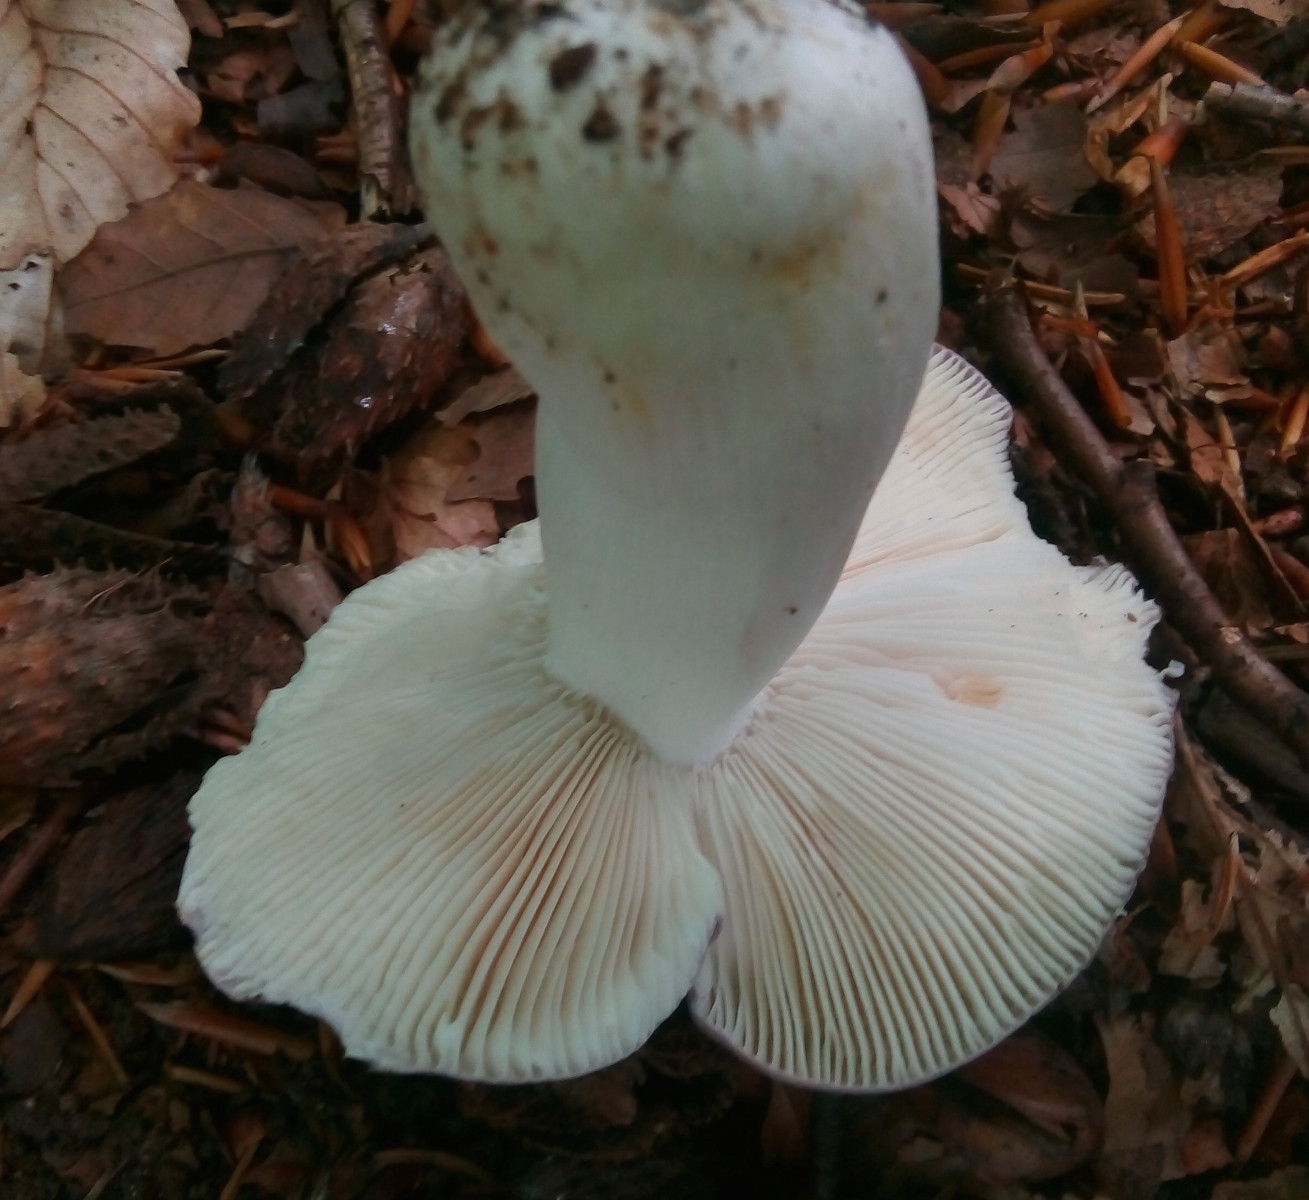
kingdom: Fungi
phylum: Basidiomycota
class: Agaricomycetes
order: Russulales
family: Russulaceae
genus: Russula
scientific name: Russula cyanoxantha
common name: broget skørhat
